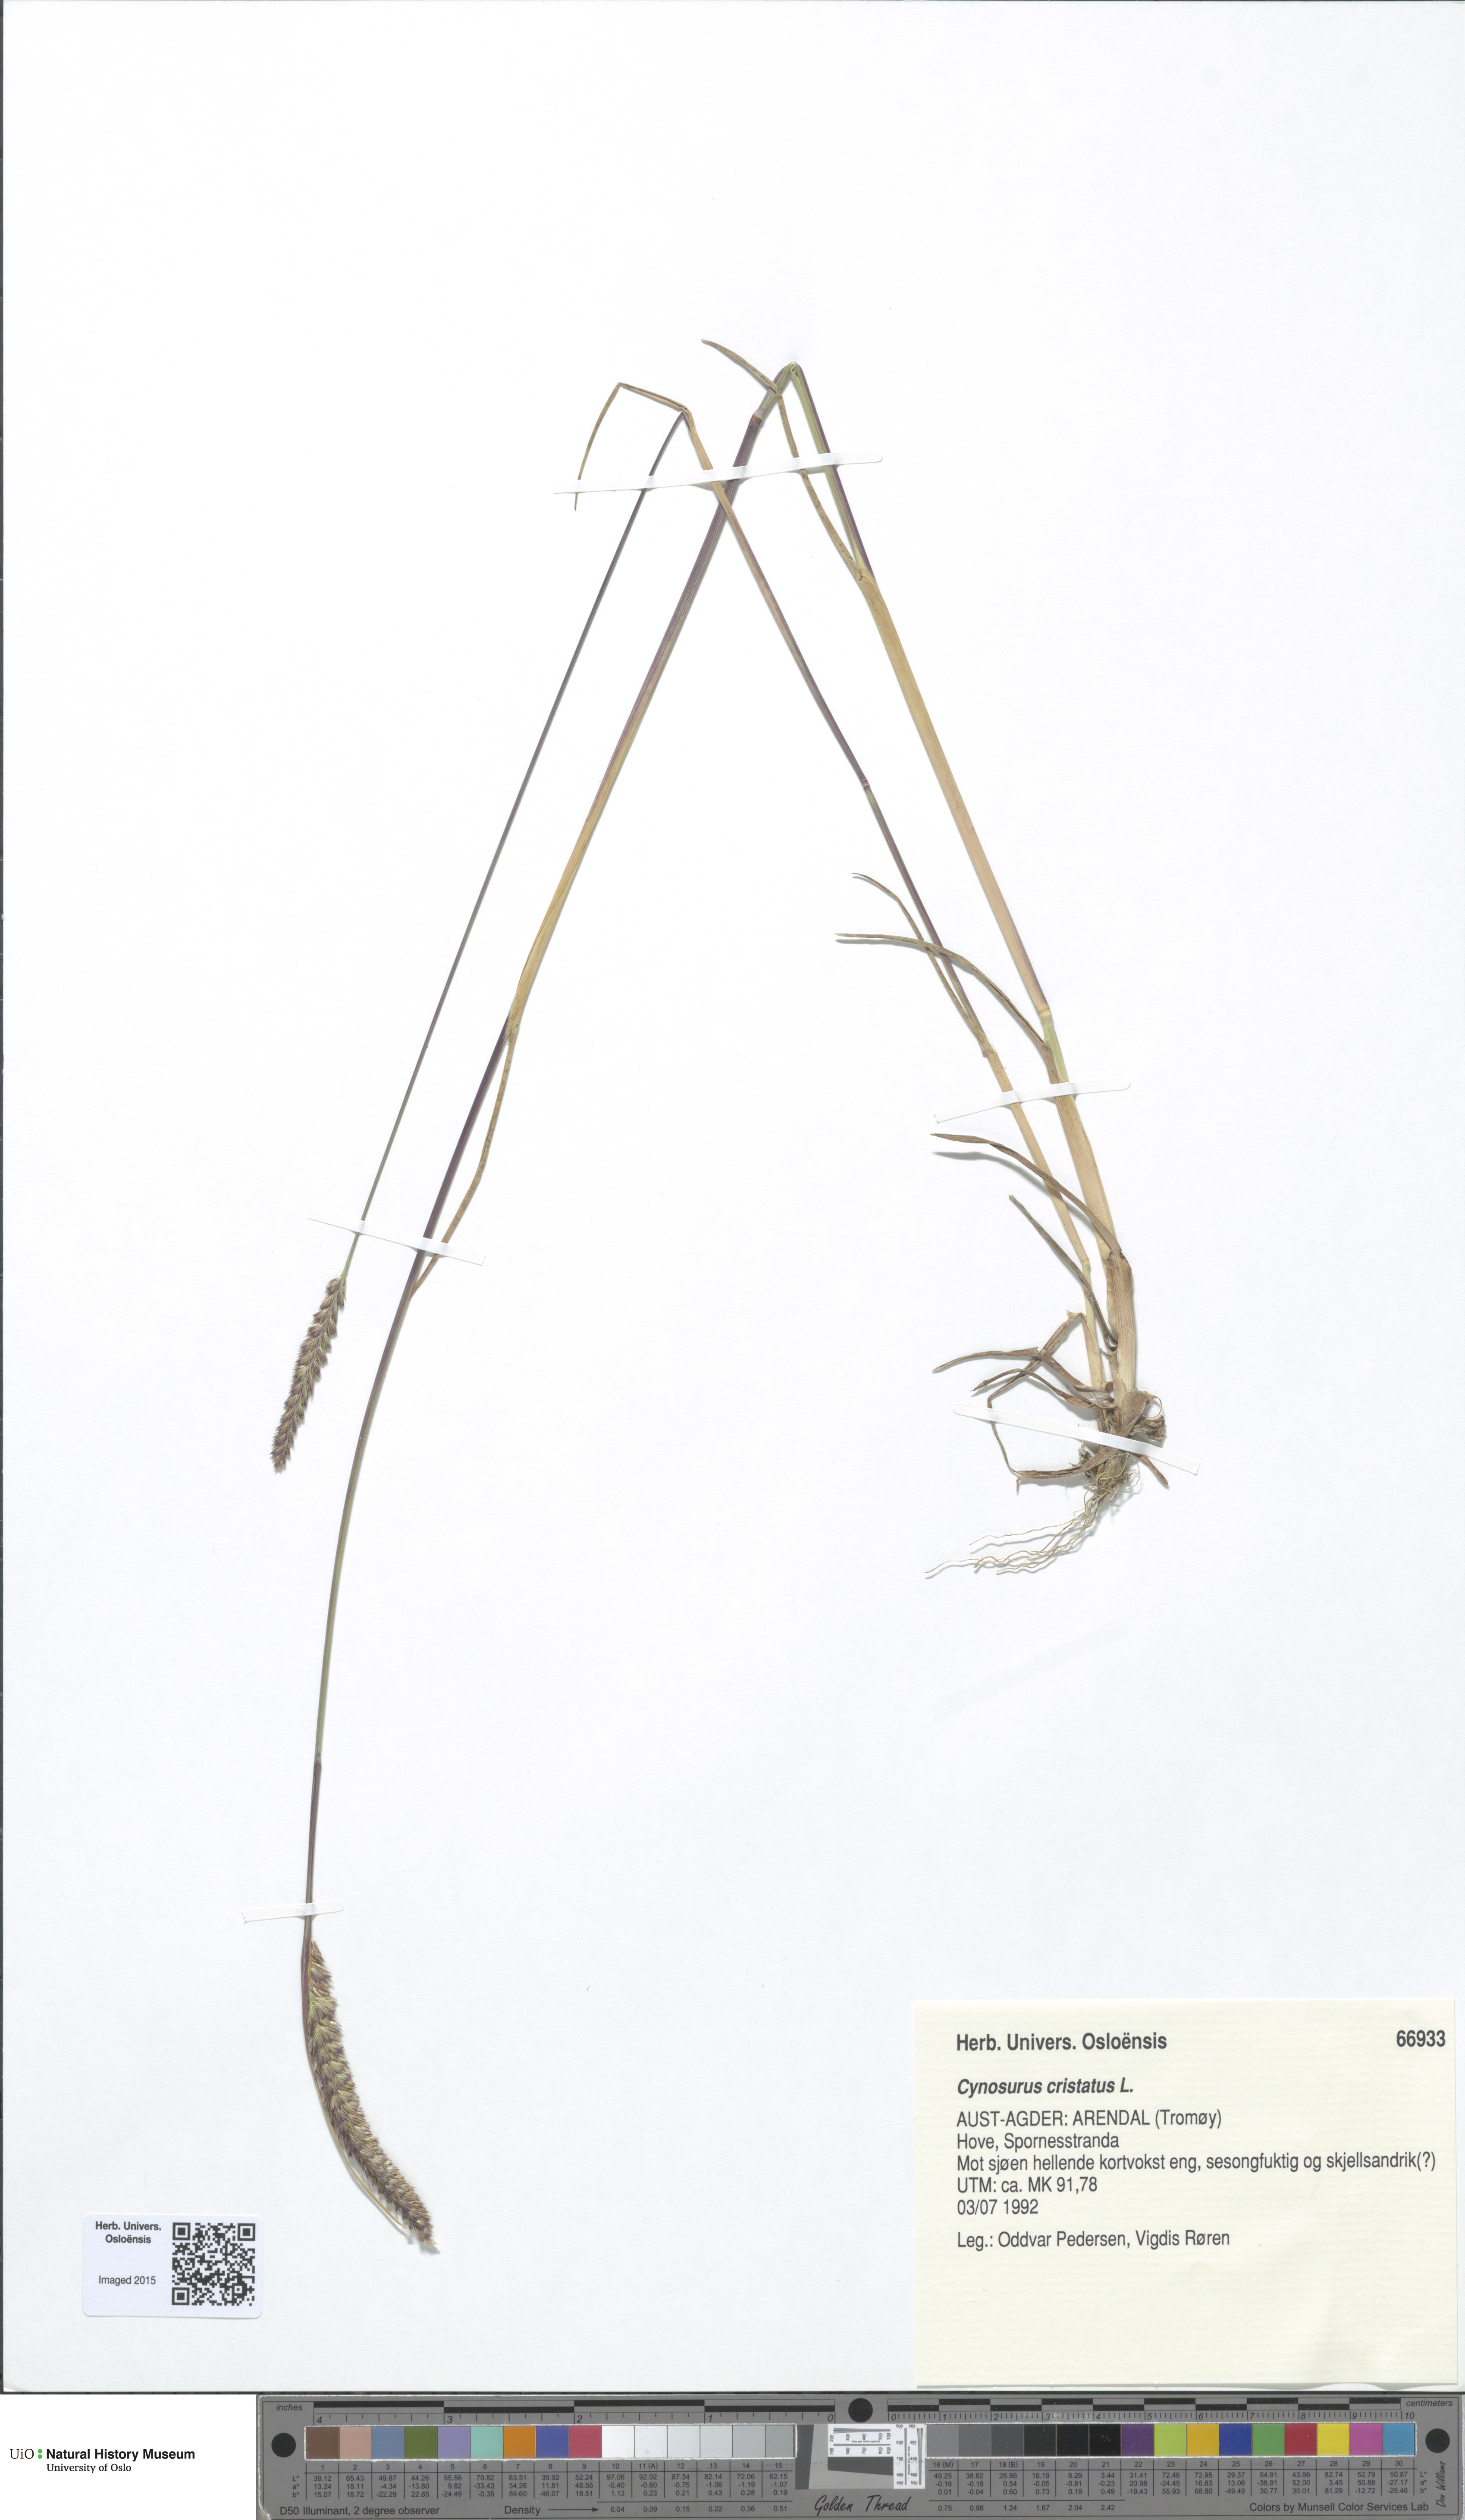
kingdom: Plantae
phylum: Tracheophyta
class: Liliopsida
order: Poales
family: Poaceae
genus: Cynosurus
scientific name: Cynosurus cristatus
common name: Crested dog's-tail
